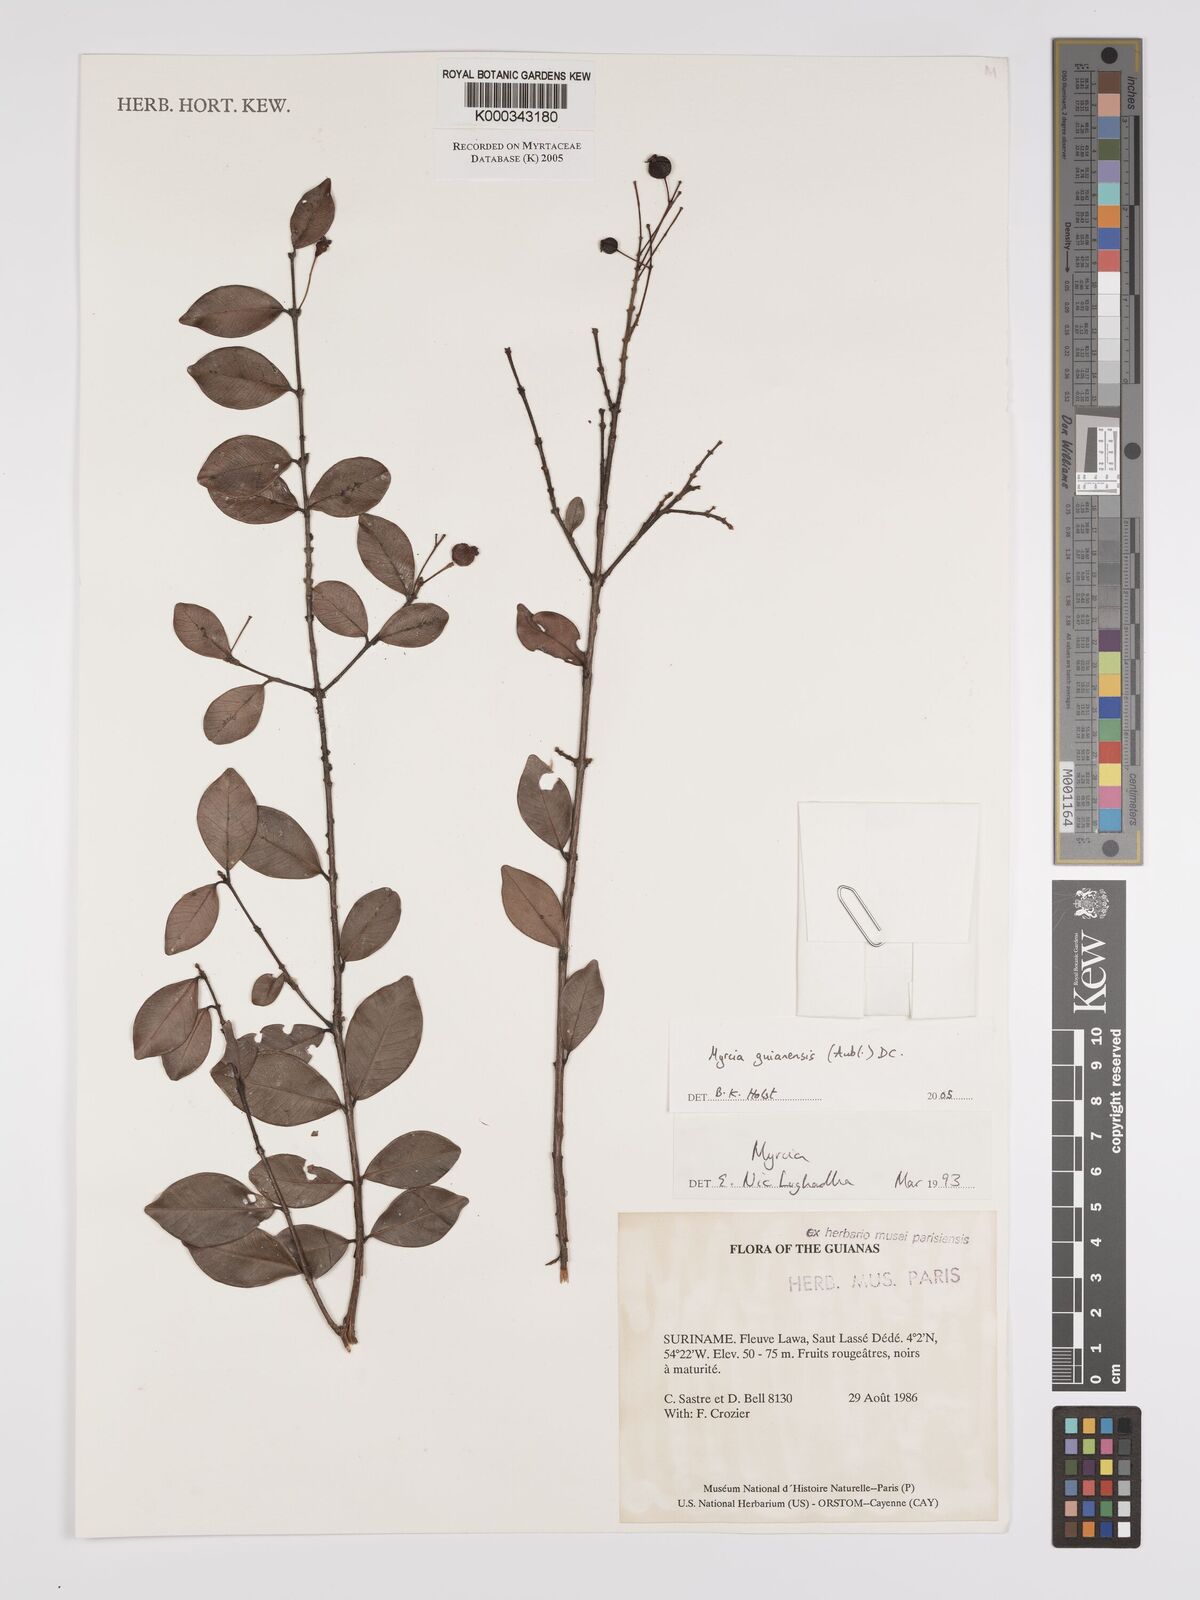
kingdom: Plantae
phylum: Tracheophyta
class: Magnoliopsida
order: Myrtales
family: Myrtaceae
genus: Myrcia
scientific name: Myrcia guianensis
